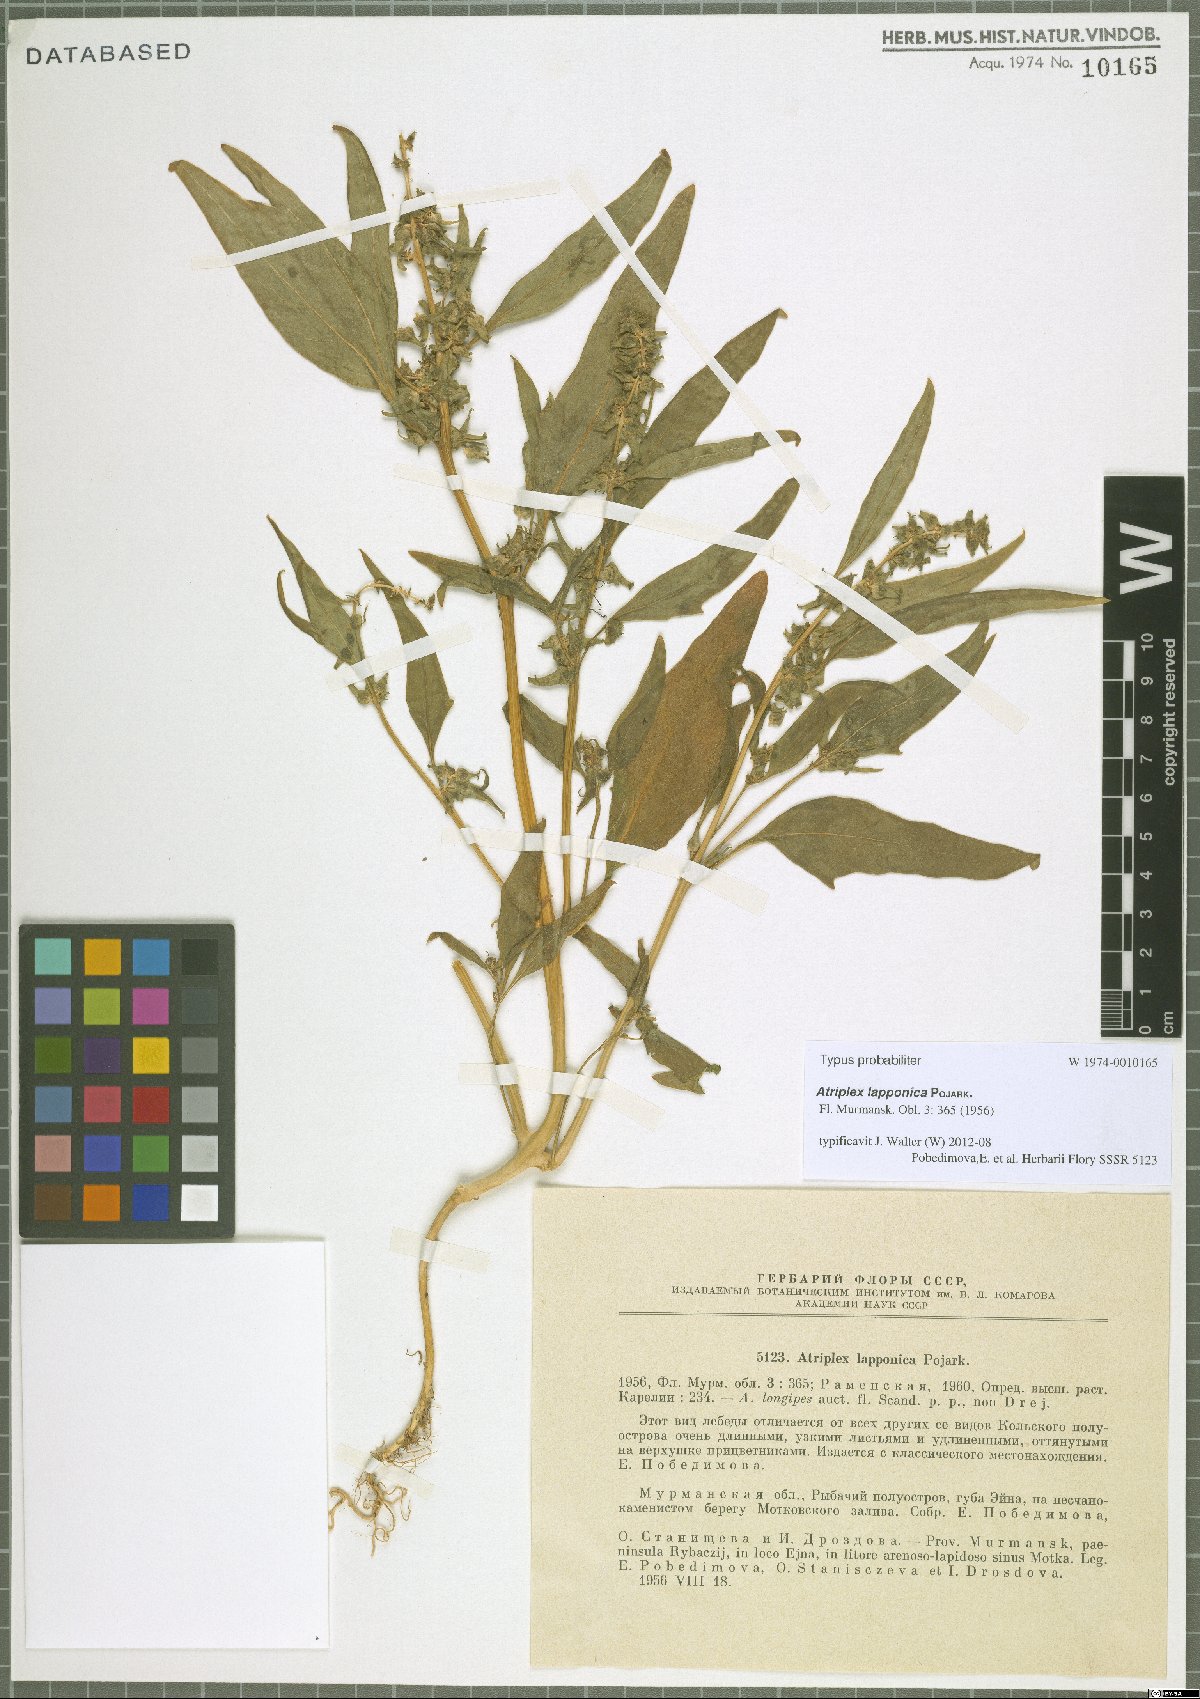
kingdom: Plantae
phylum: Tracheophyta
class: Magnoliopsida
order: Caryophyllales
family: Amaranthaceae
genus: Atriplex
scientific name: Atriplex nudicaulis
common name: Baltic orache
